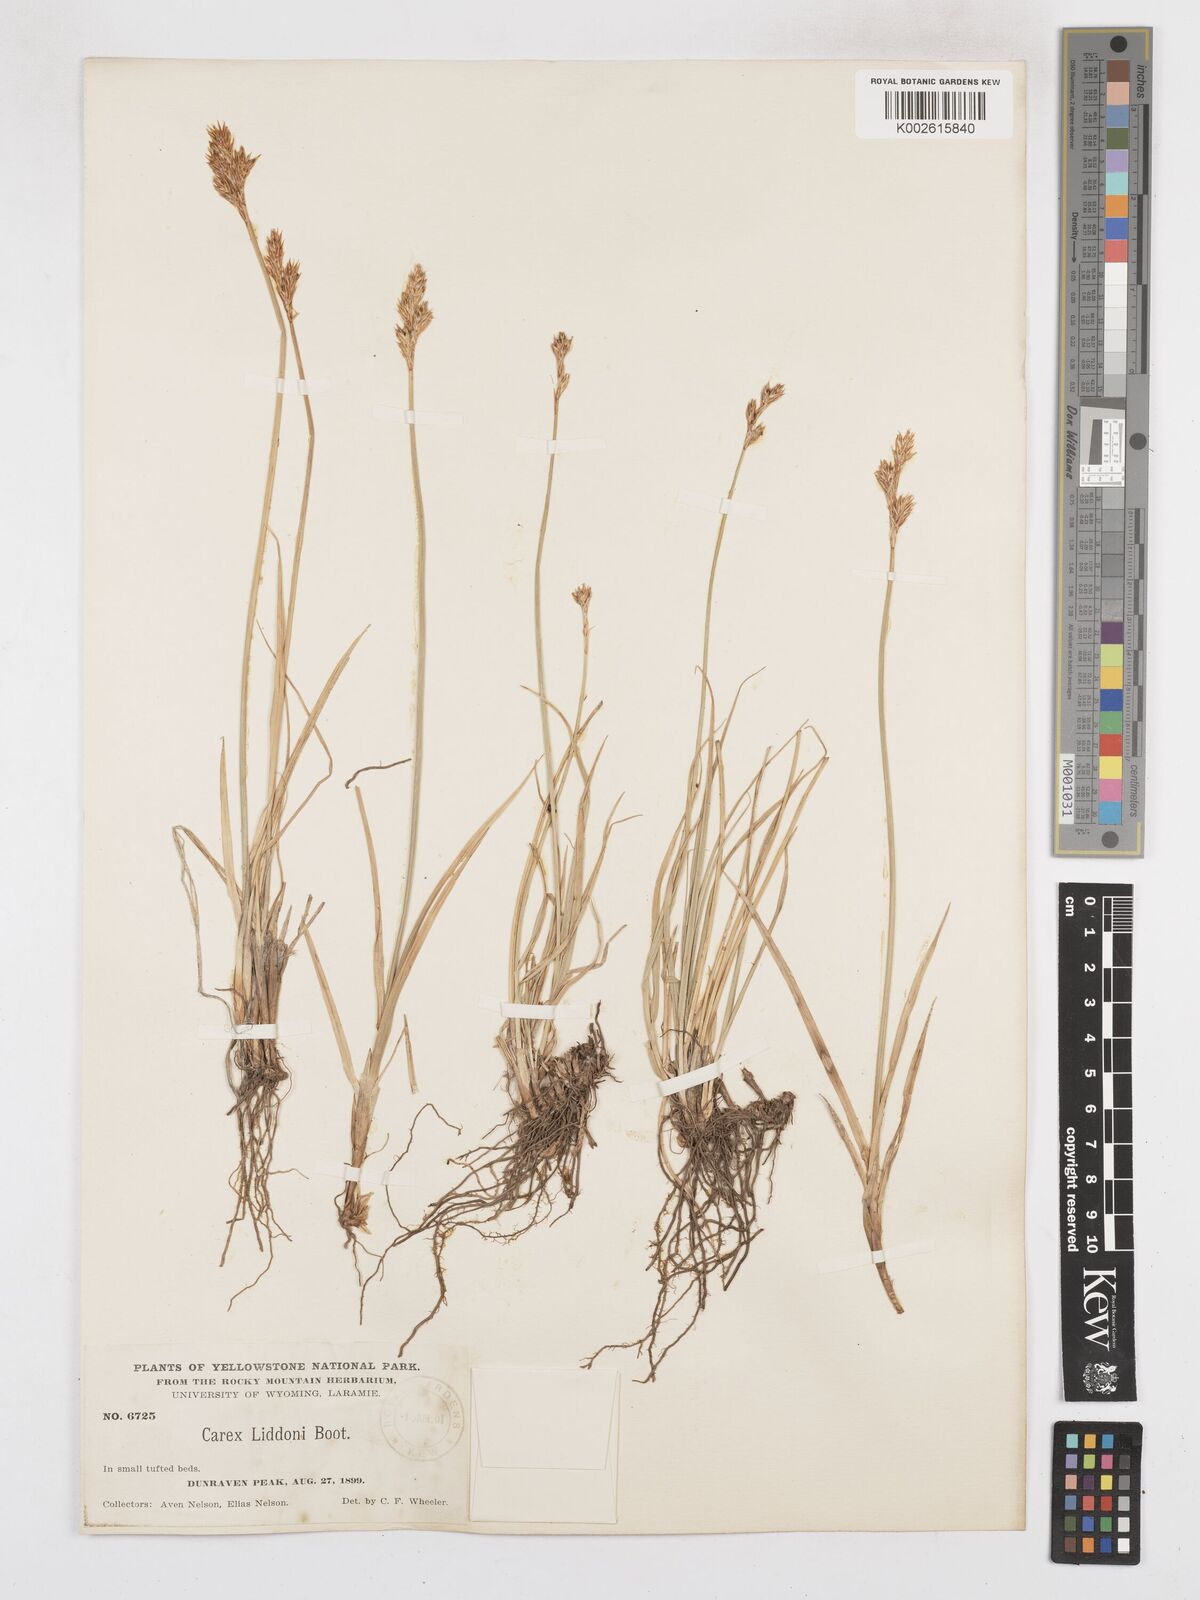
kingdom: Plantae
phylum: Tracheophyta
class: Liliopsida
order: Poales
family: Cyperaceae
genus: Carex
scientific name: Carex petasata
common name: Liddon's sedge
